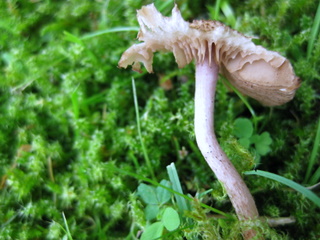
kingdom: Fungi
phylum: Basidiomycota
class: Agaricomycetes
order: Agaricales
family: Inocybaceae
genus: Inocybe
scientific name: Inocybe cincinnata
